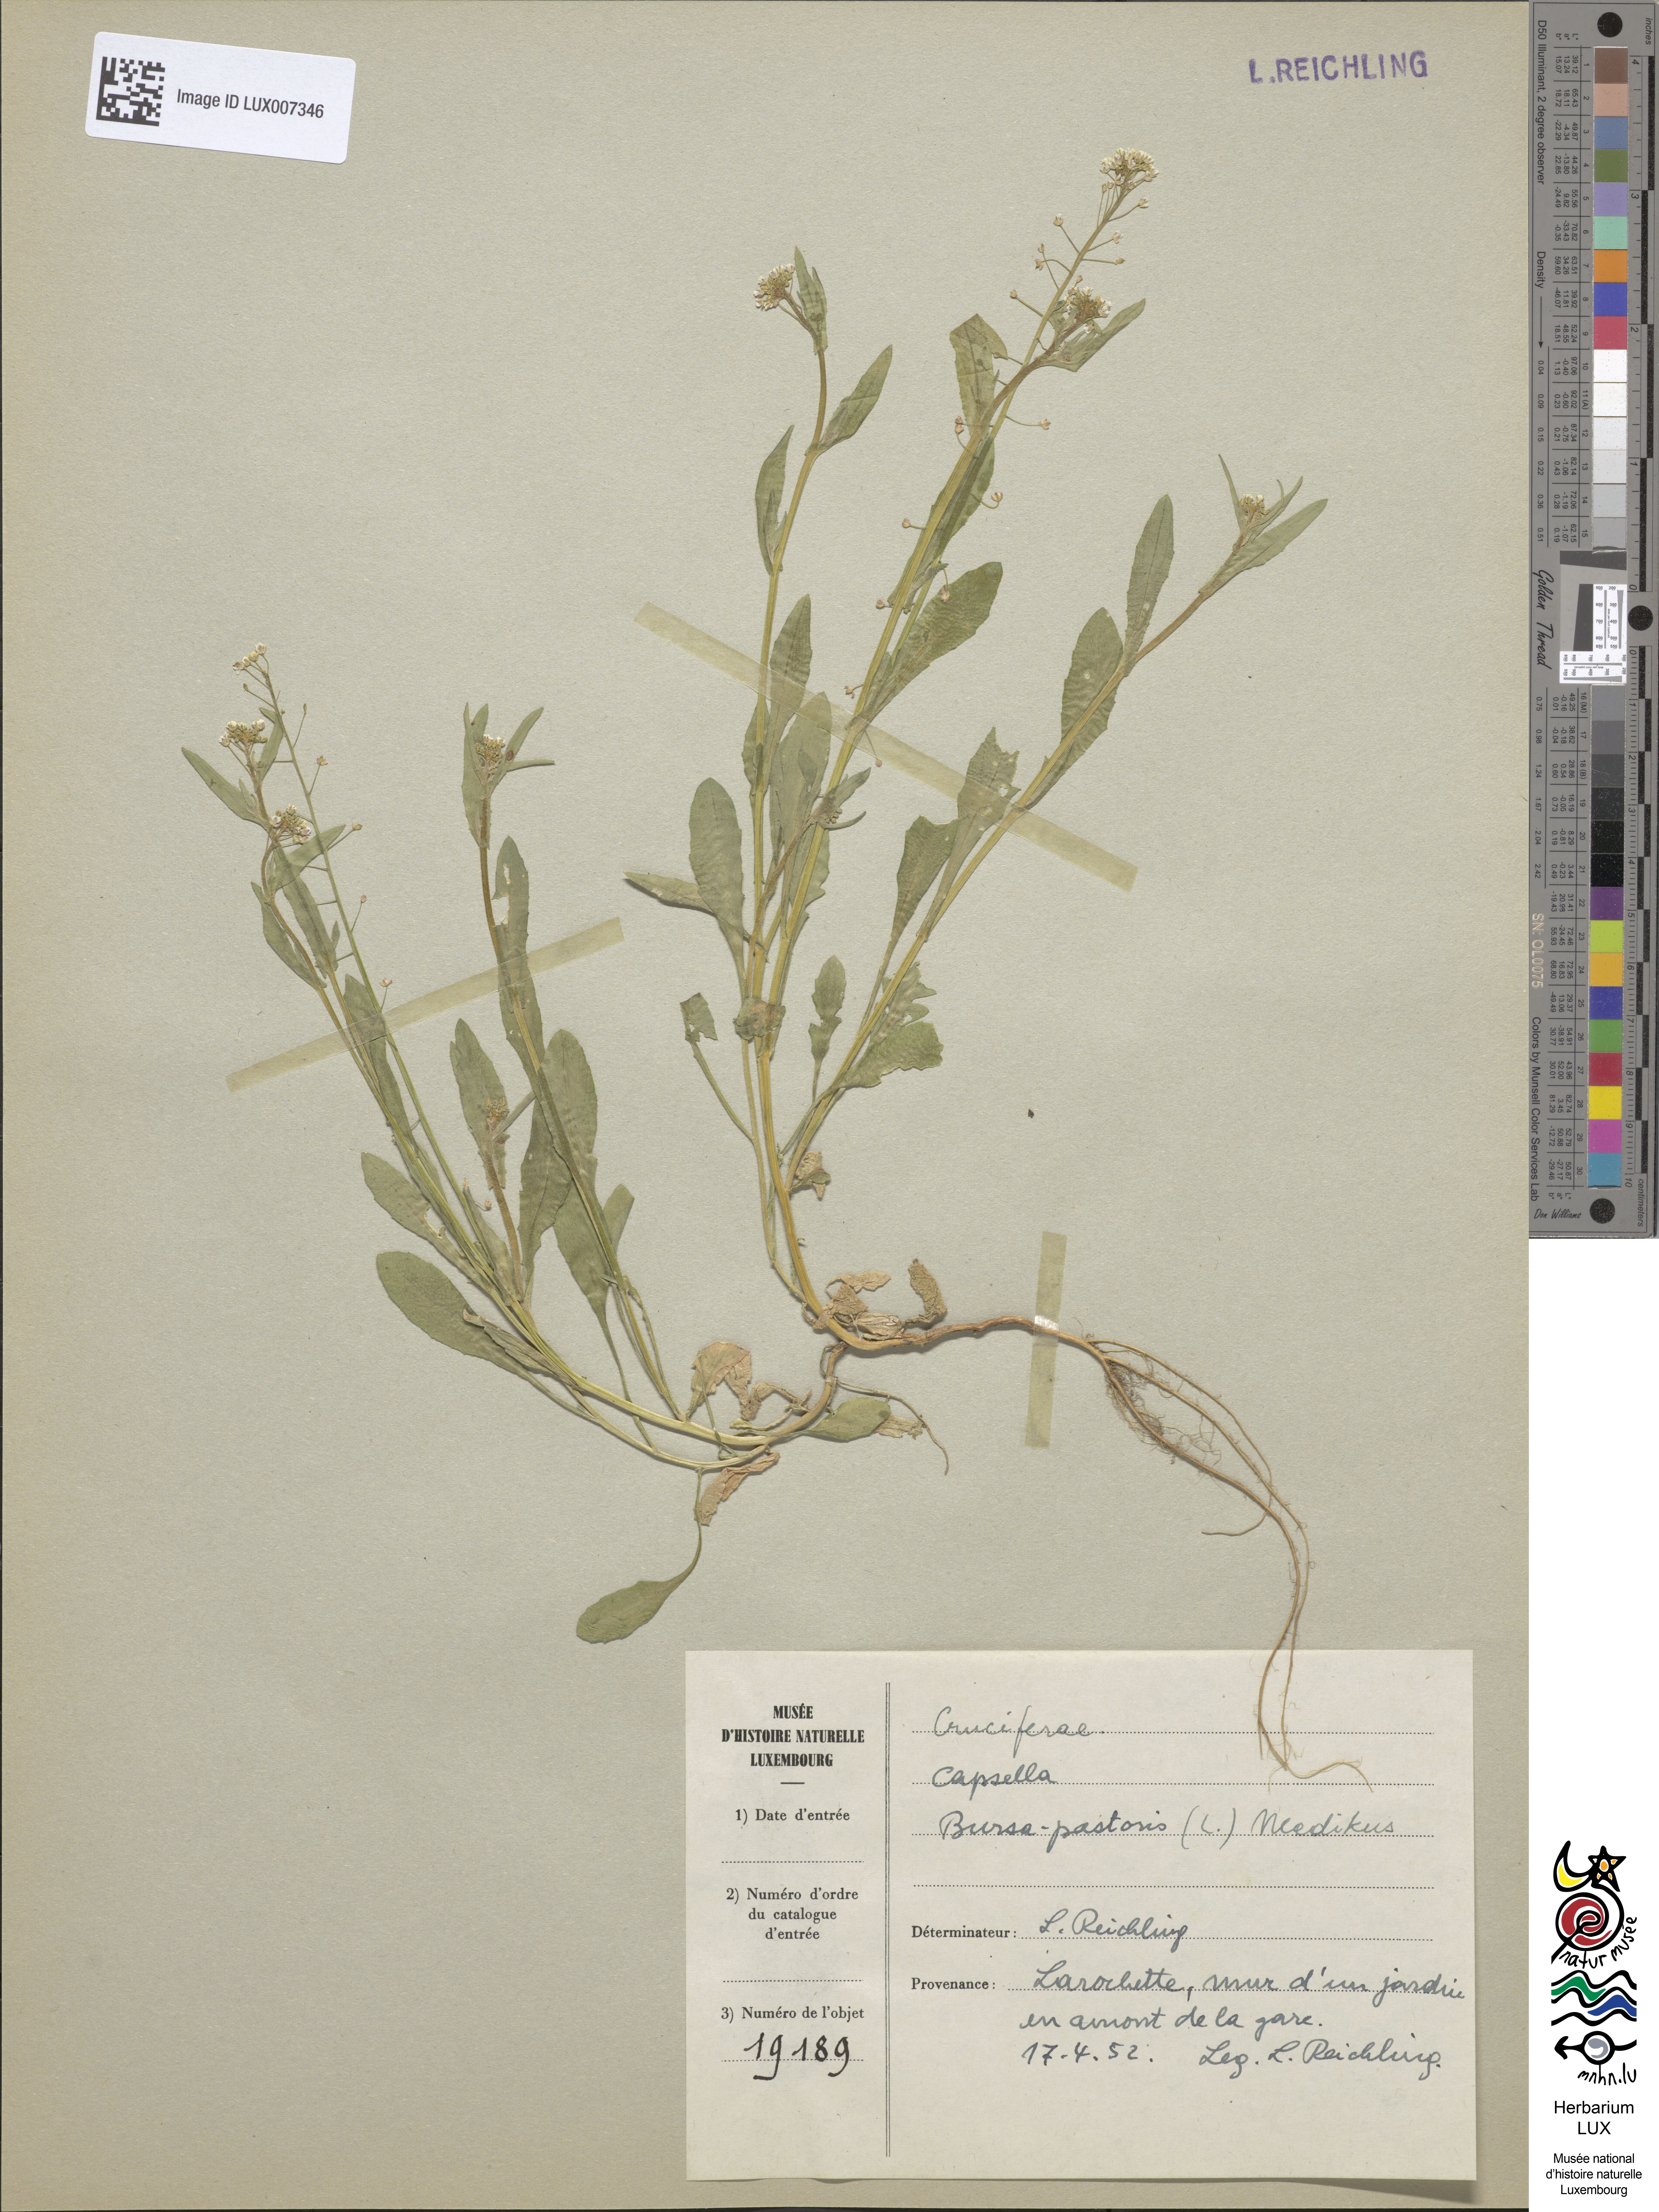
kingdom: Plantae
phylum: Tracheophyta
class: Magnoliopsida
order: Brassicales
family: Brassicaceae
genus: Capsella
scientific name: Capsella bursa-pastoris
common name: Shepherd's purse
